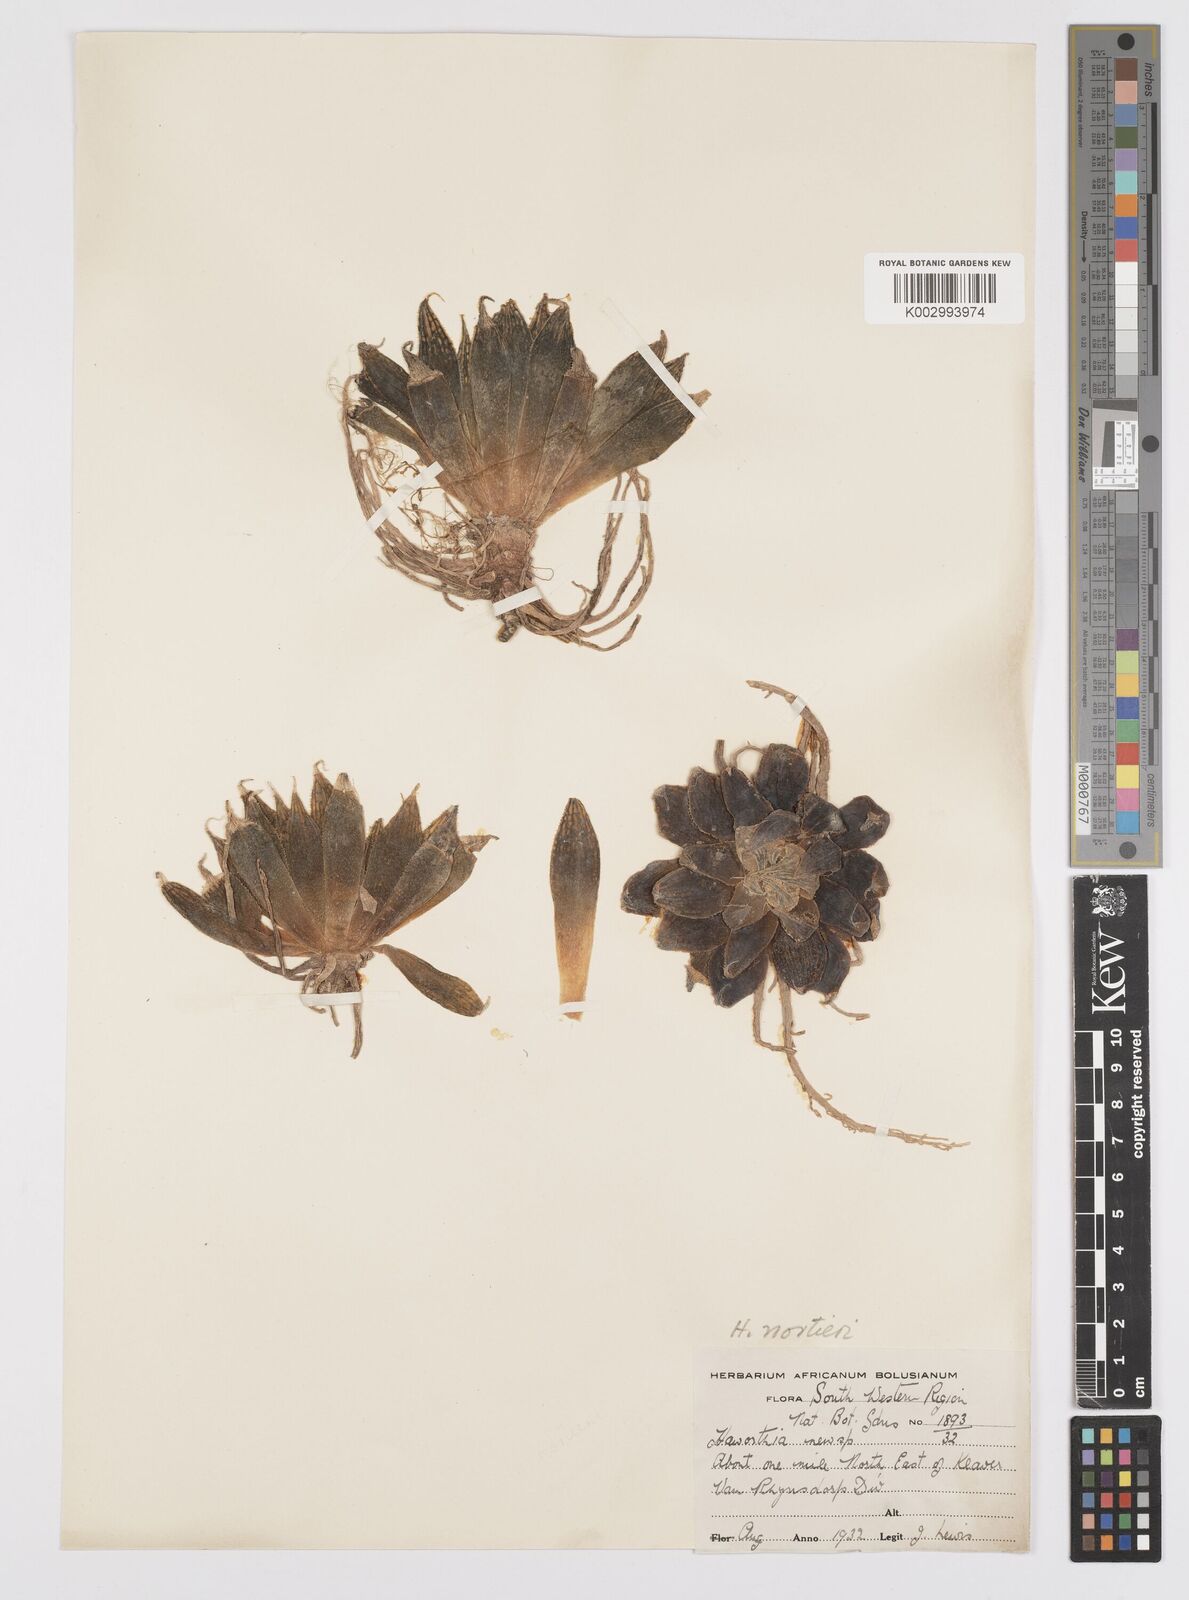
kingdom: Plantae
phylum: Tracheophyta
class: Liliopsida
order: Asparagales
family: Asphodelaceae
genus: Haworthia
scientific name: Haworthia nortieri
